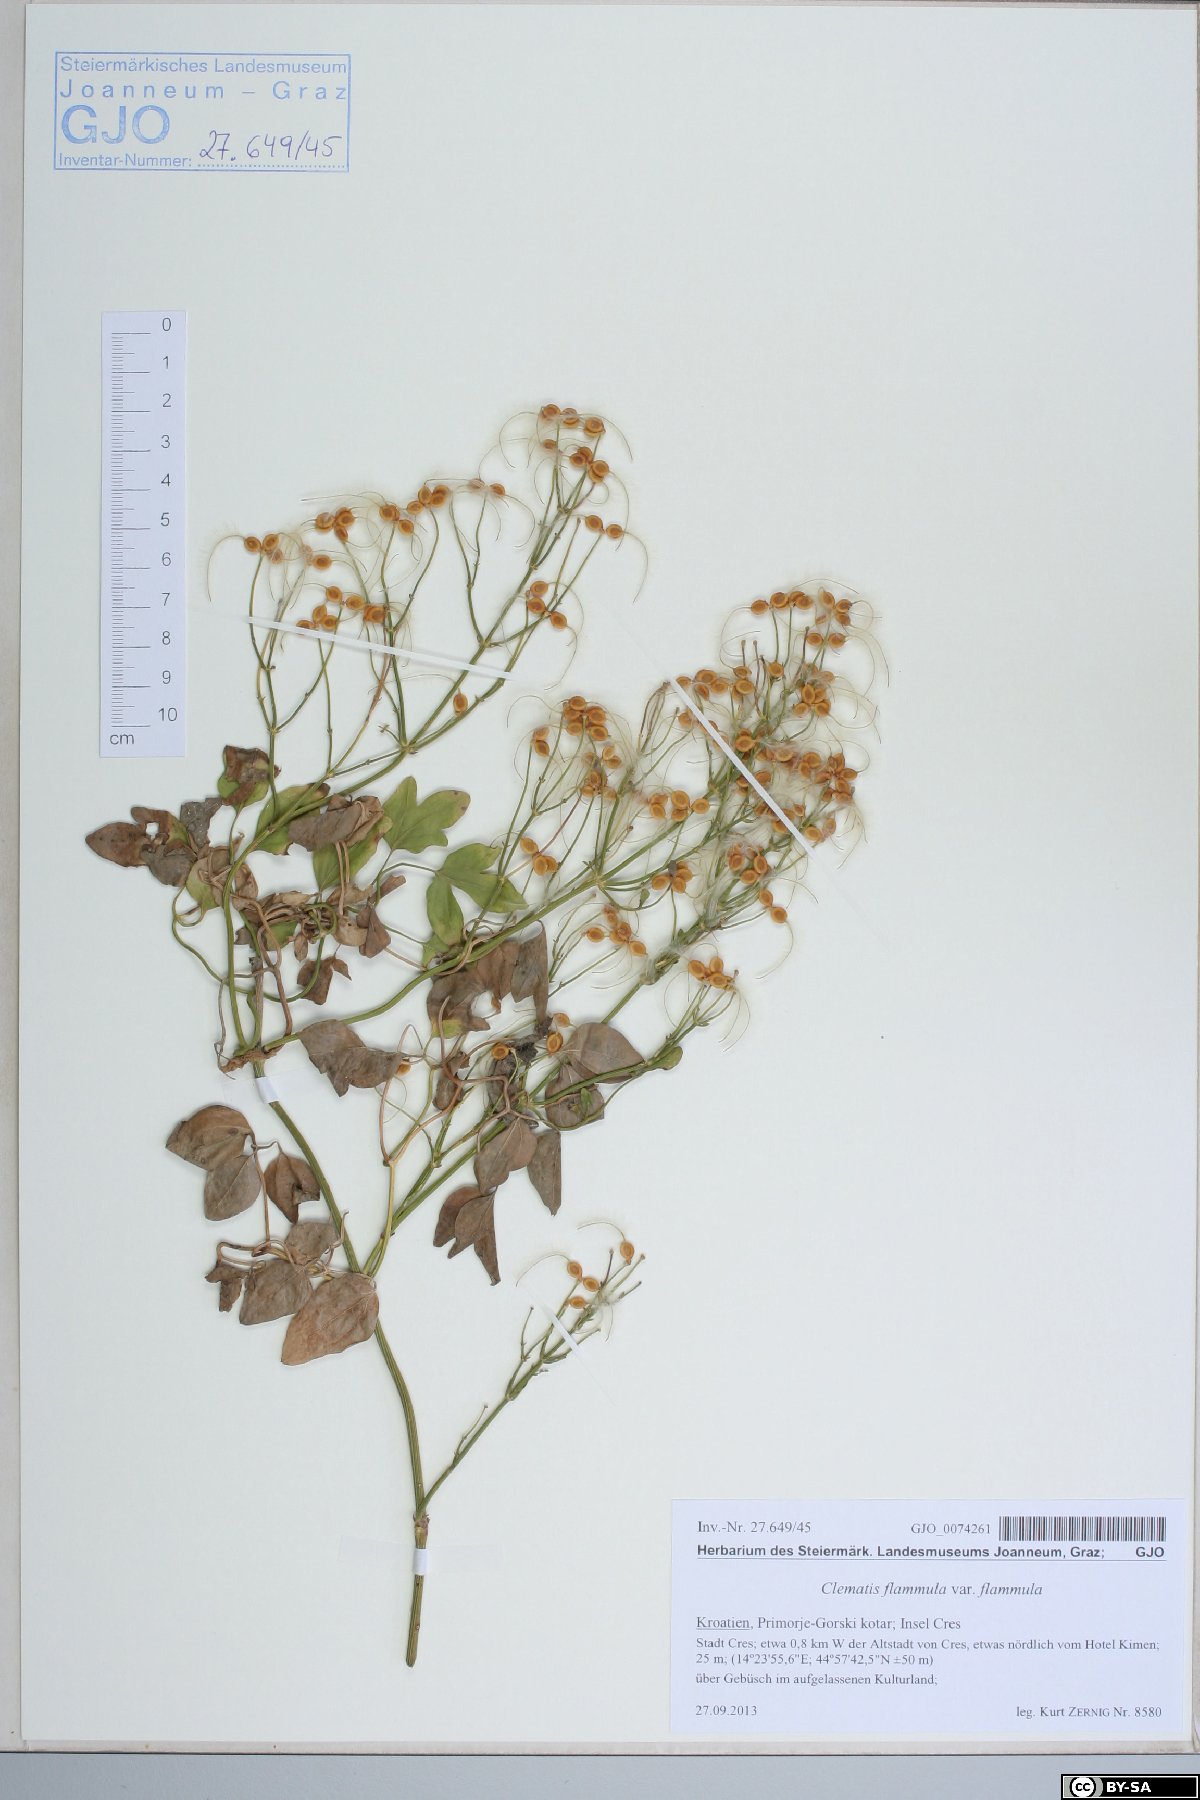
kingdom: Plantae
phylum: Tracheophyta
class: Magnoliopsida
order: Ranunculales
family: Ranunculaceae
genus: Clematis
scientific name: Clematis flammula
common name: Virgin's-bower
